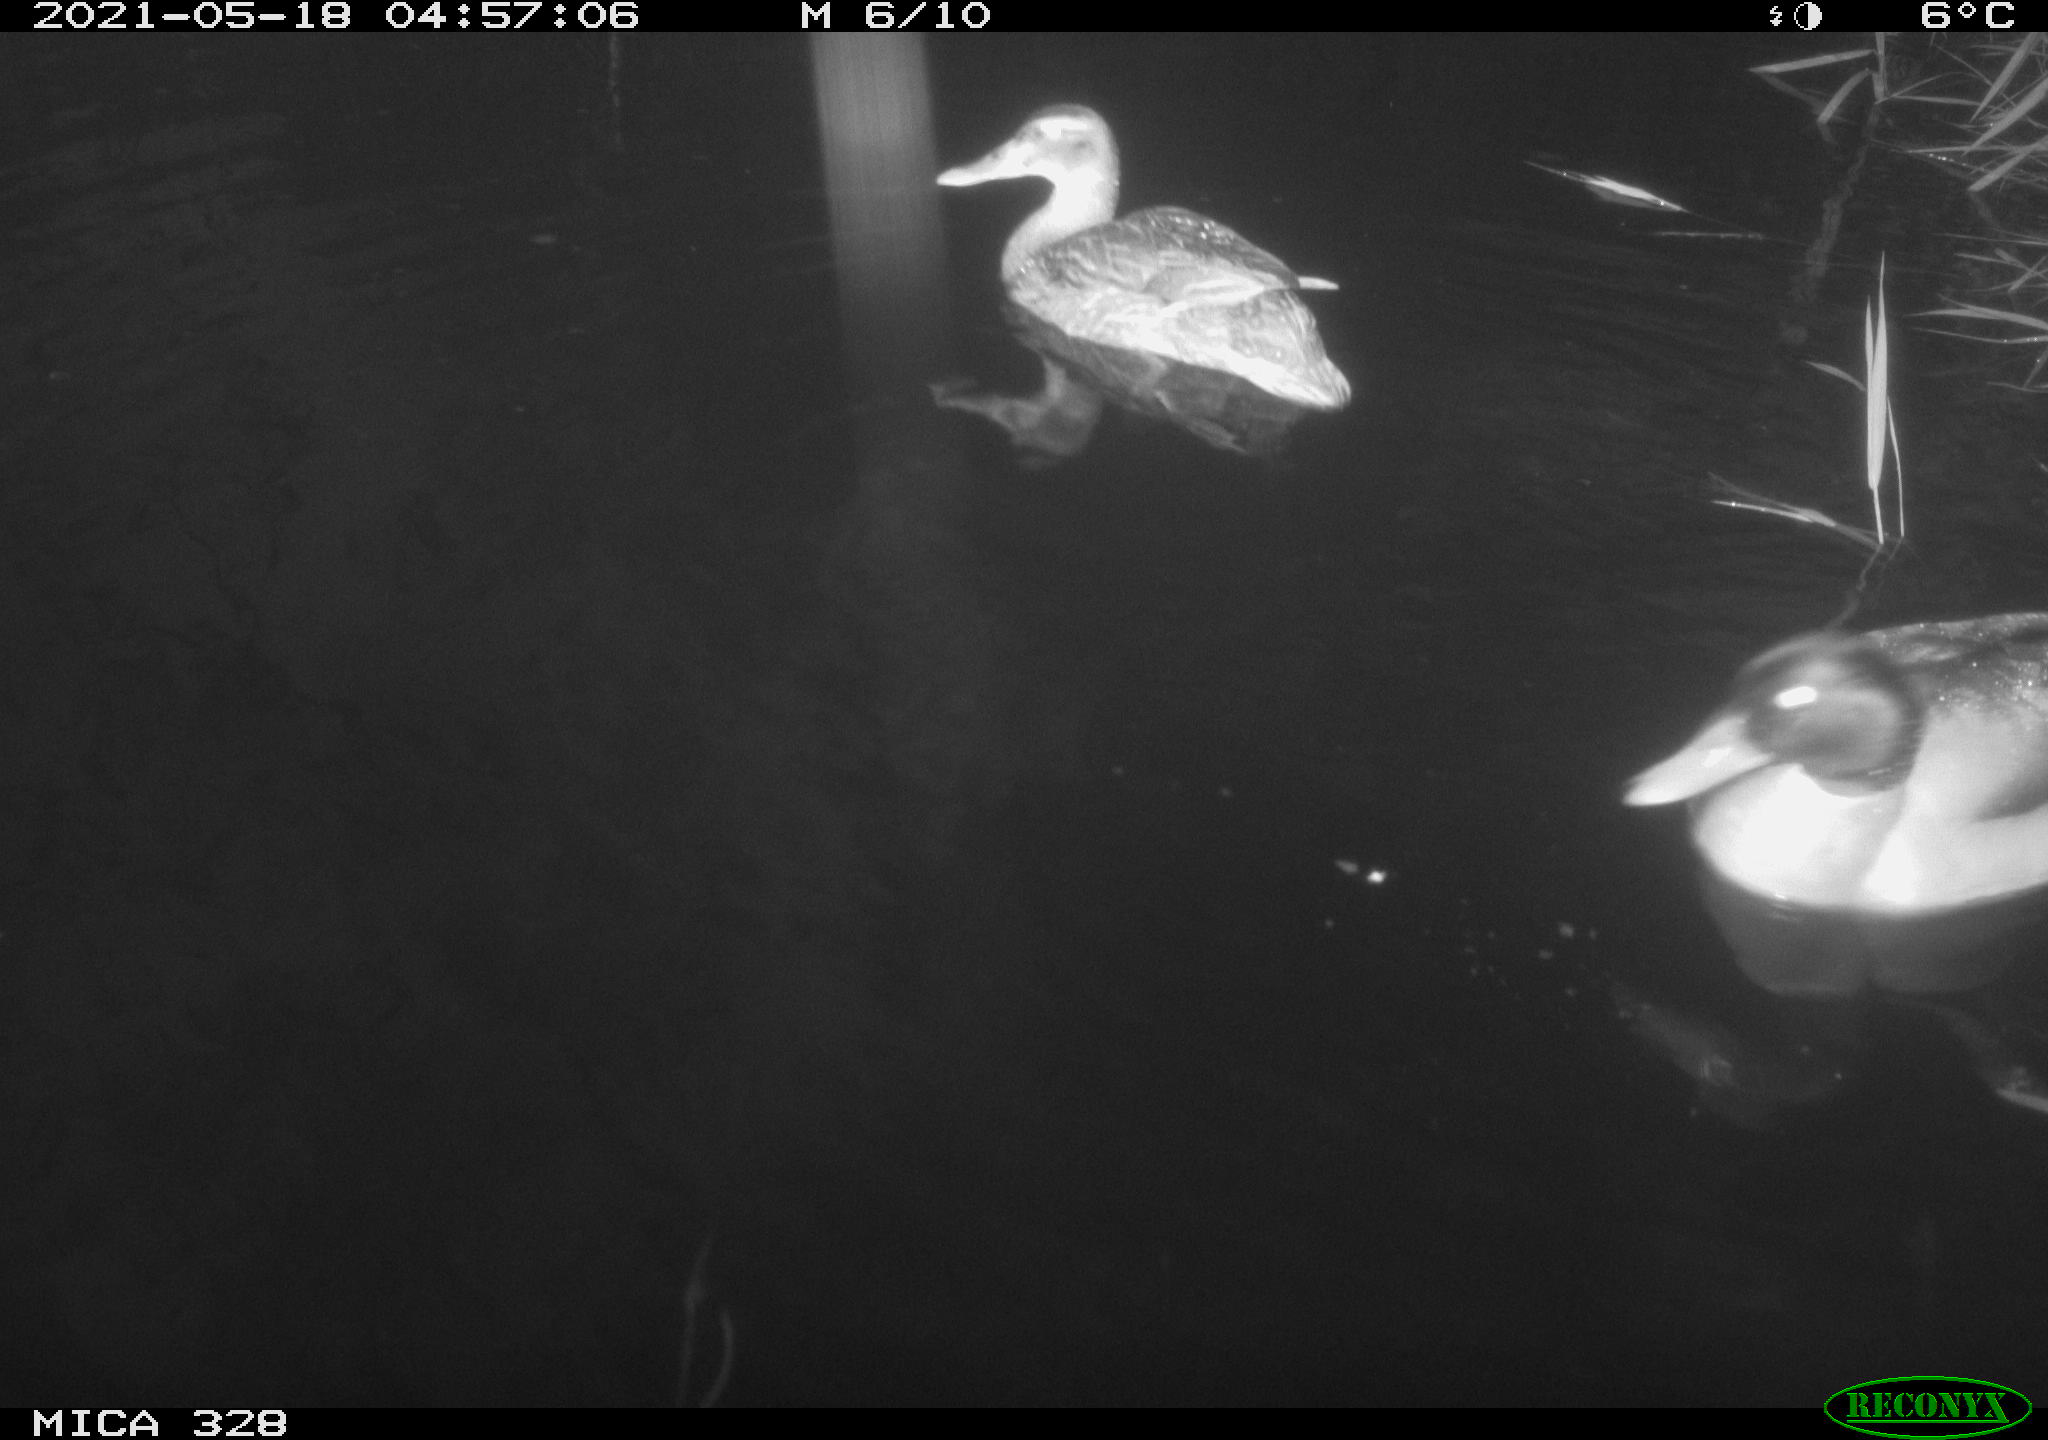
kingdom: Animalia
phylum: Chordata
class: Aves
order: Anseriformes
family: Anatidae
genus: Anas
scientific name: Anas platyrhynchos
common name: Mallard
